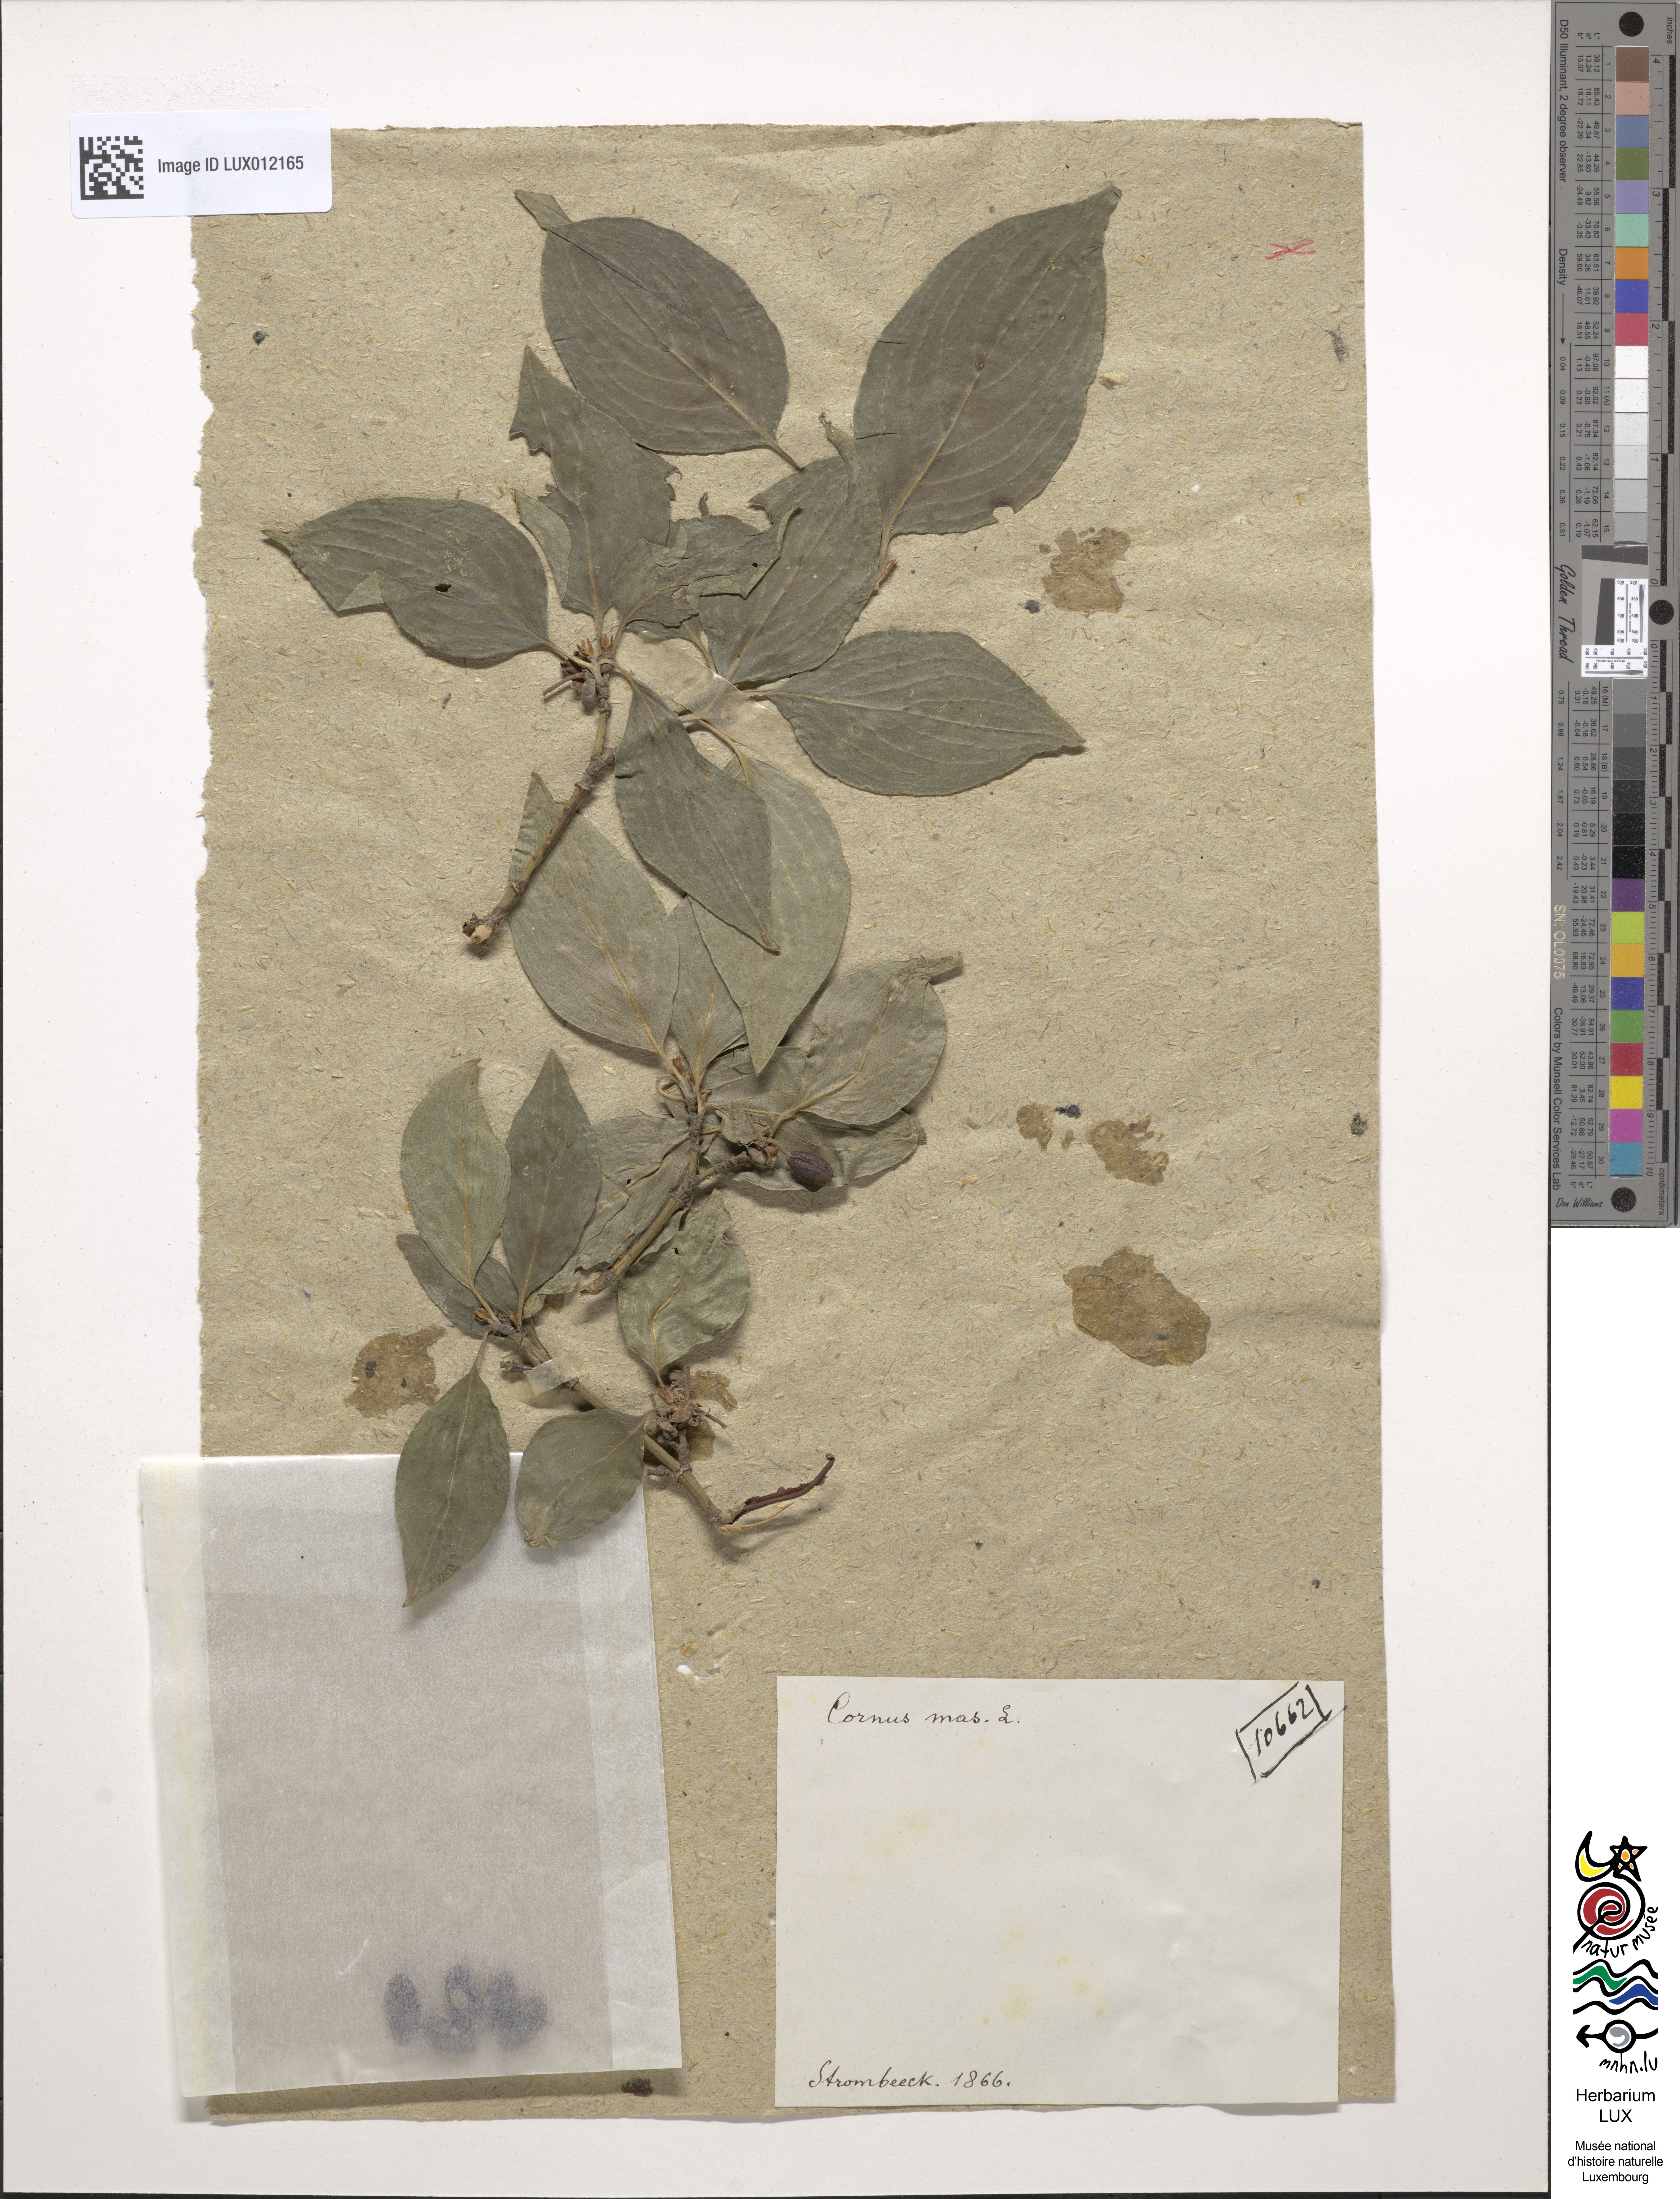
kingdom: Plantae
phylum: Tracheophyta
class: Magnoliopsida
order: Cornales
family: Cornaceae
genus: Cornus
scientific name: Cornus mas
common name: Cornelian-cherry
